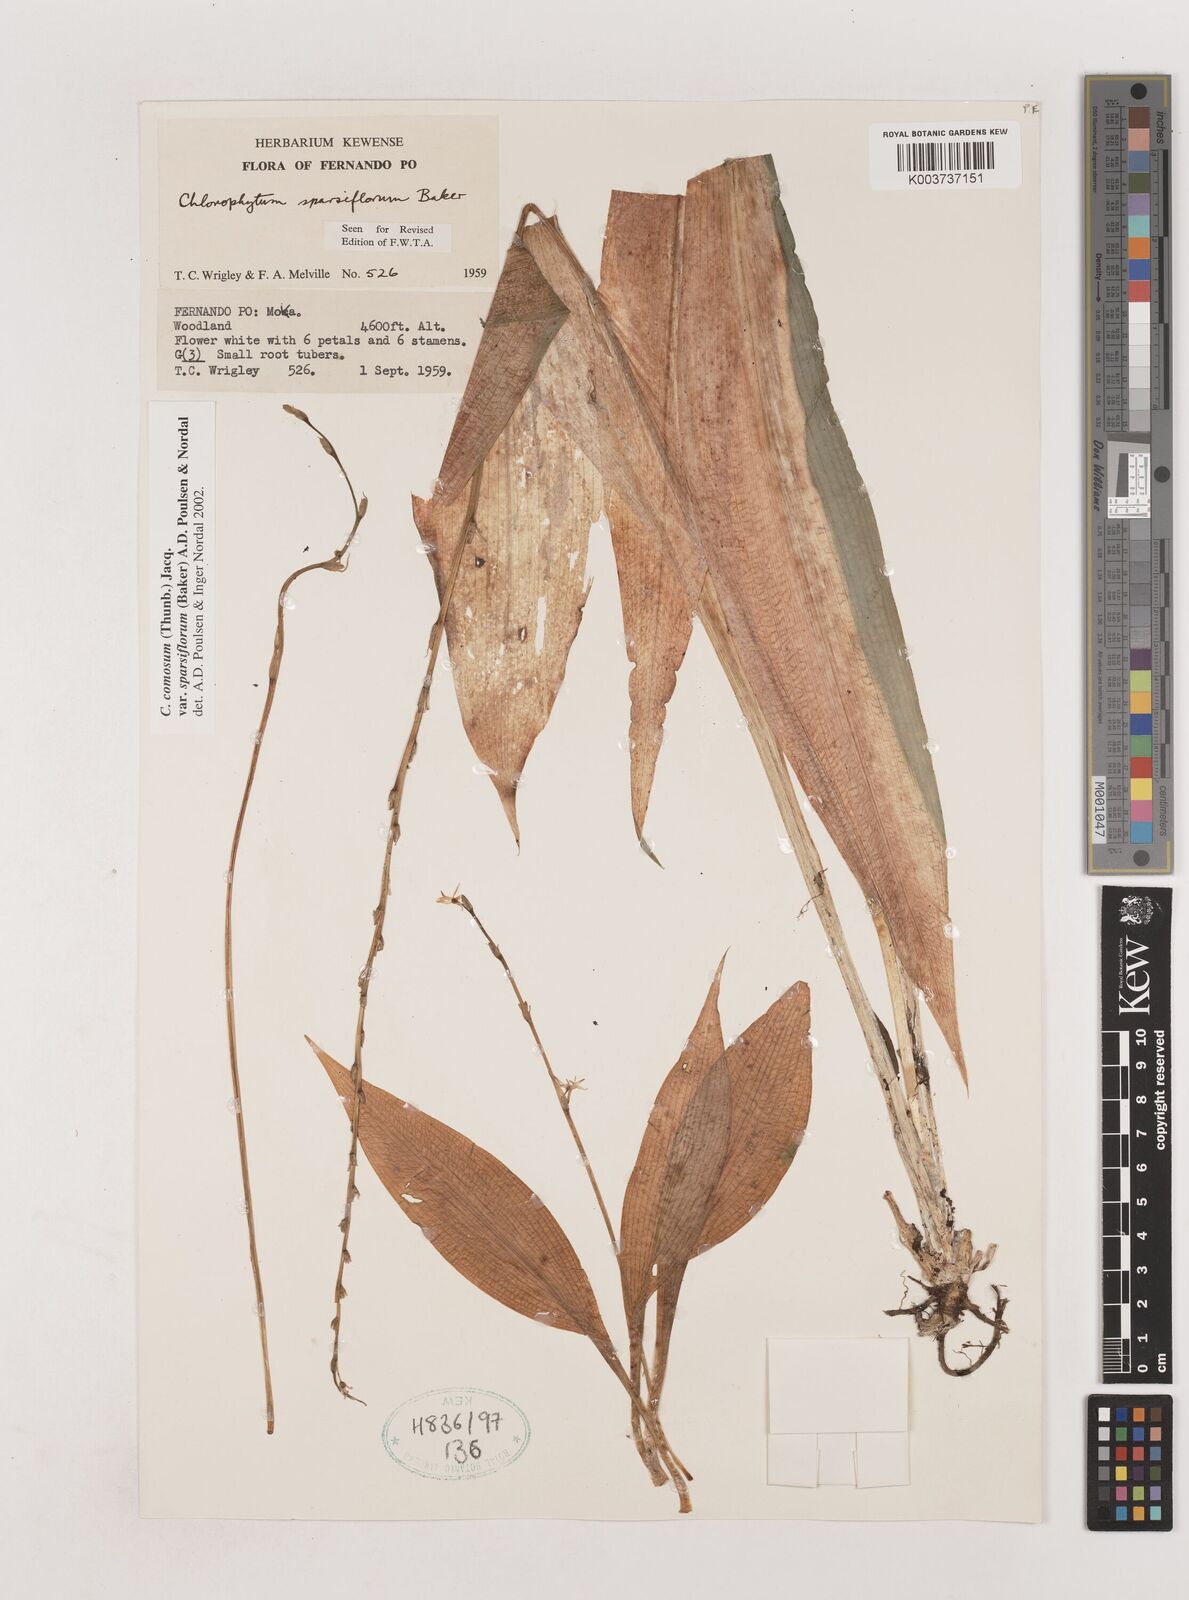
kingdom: Plantae
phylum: Tracheophyta
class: Liliopsida
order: Asparagales
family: Asparagaceae
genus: Chlorophytum
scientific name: Chlorophytum sparsiflorum
